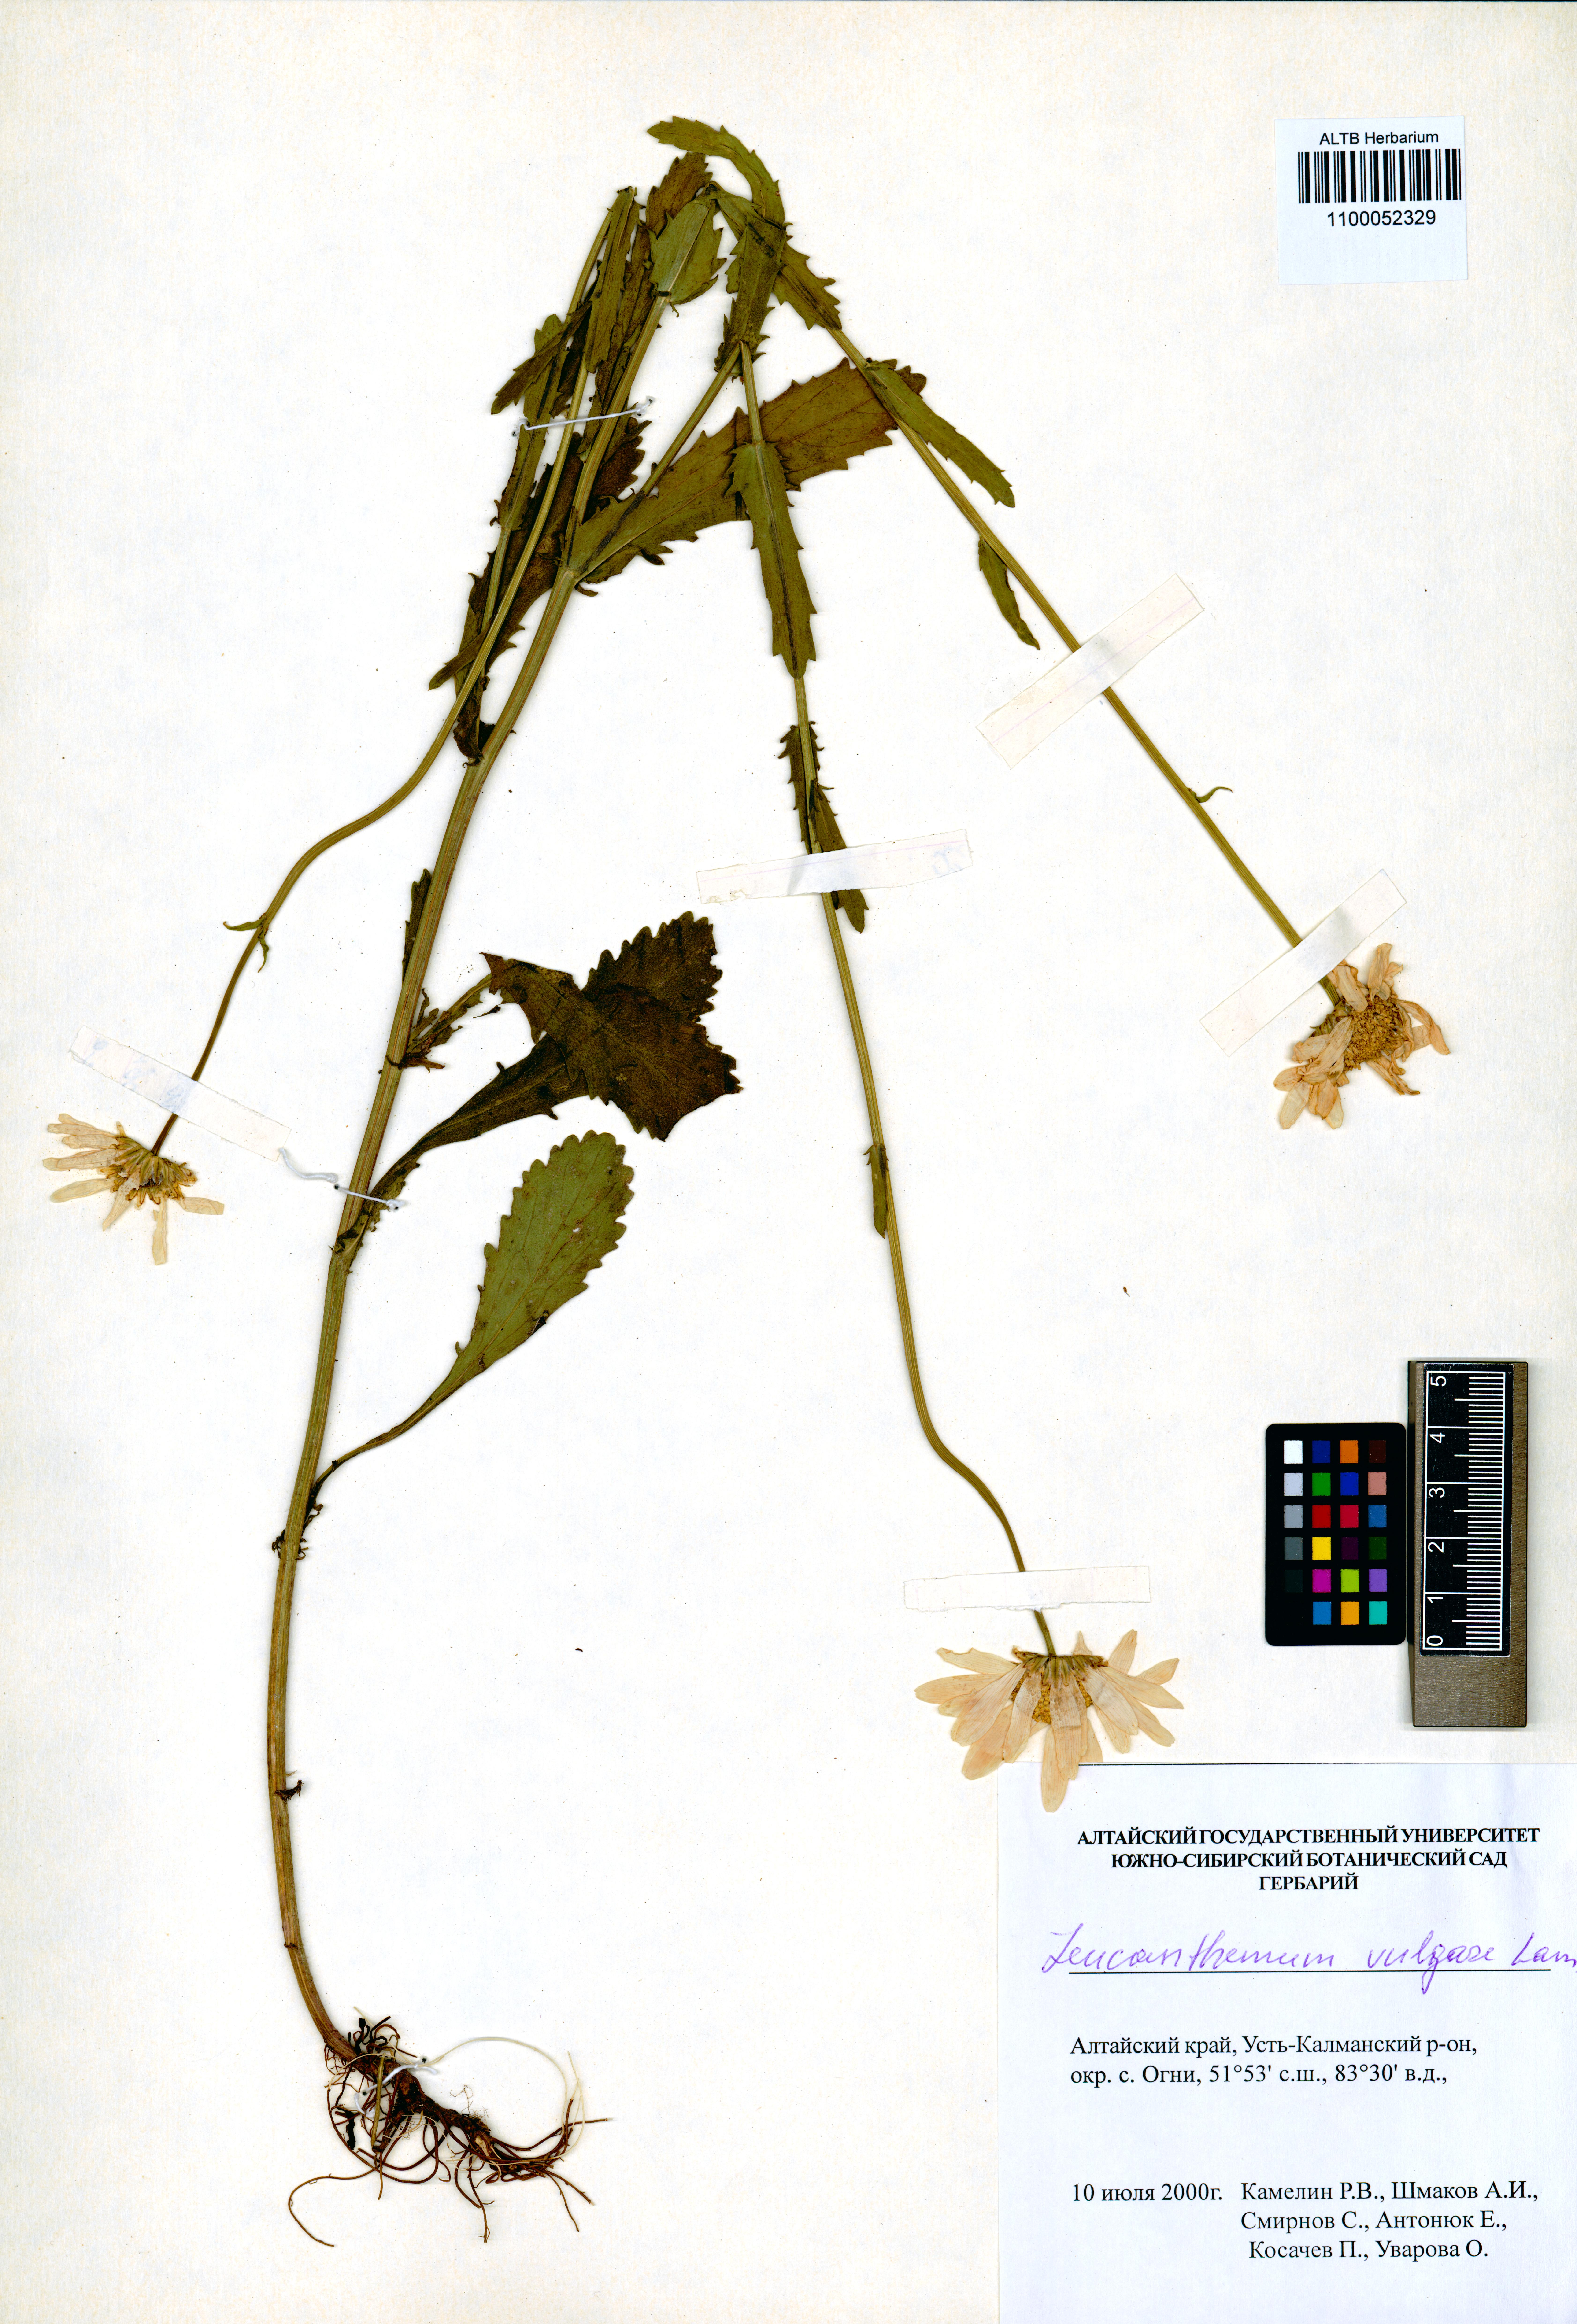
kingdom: Plantae
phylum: Tracheophyta
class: Magnoliopsida
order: Asterales
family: Asteraceae
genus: Leucanthemum
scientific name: Leucanthemum vulgare
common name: Oxeye daisy
